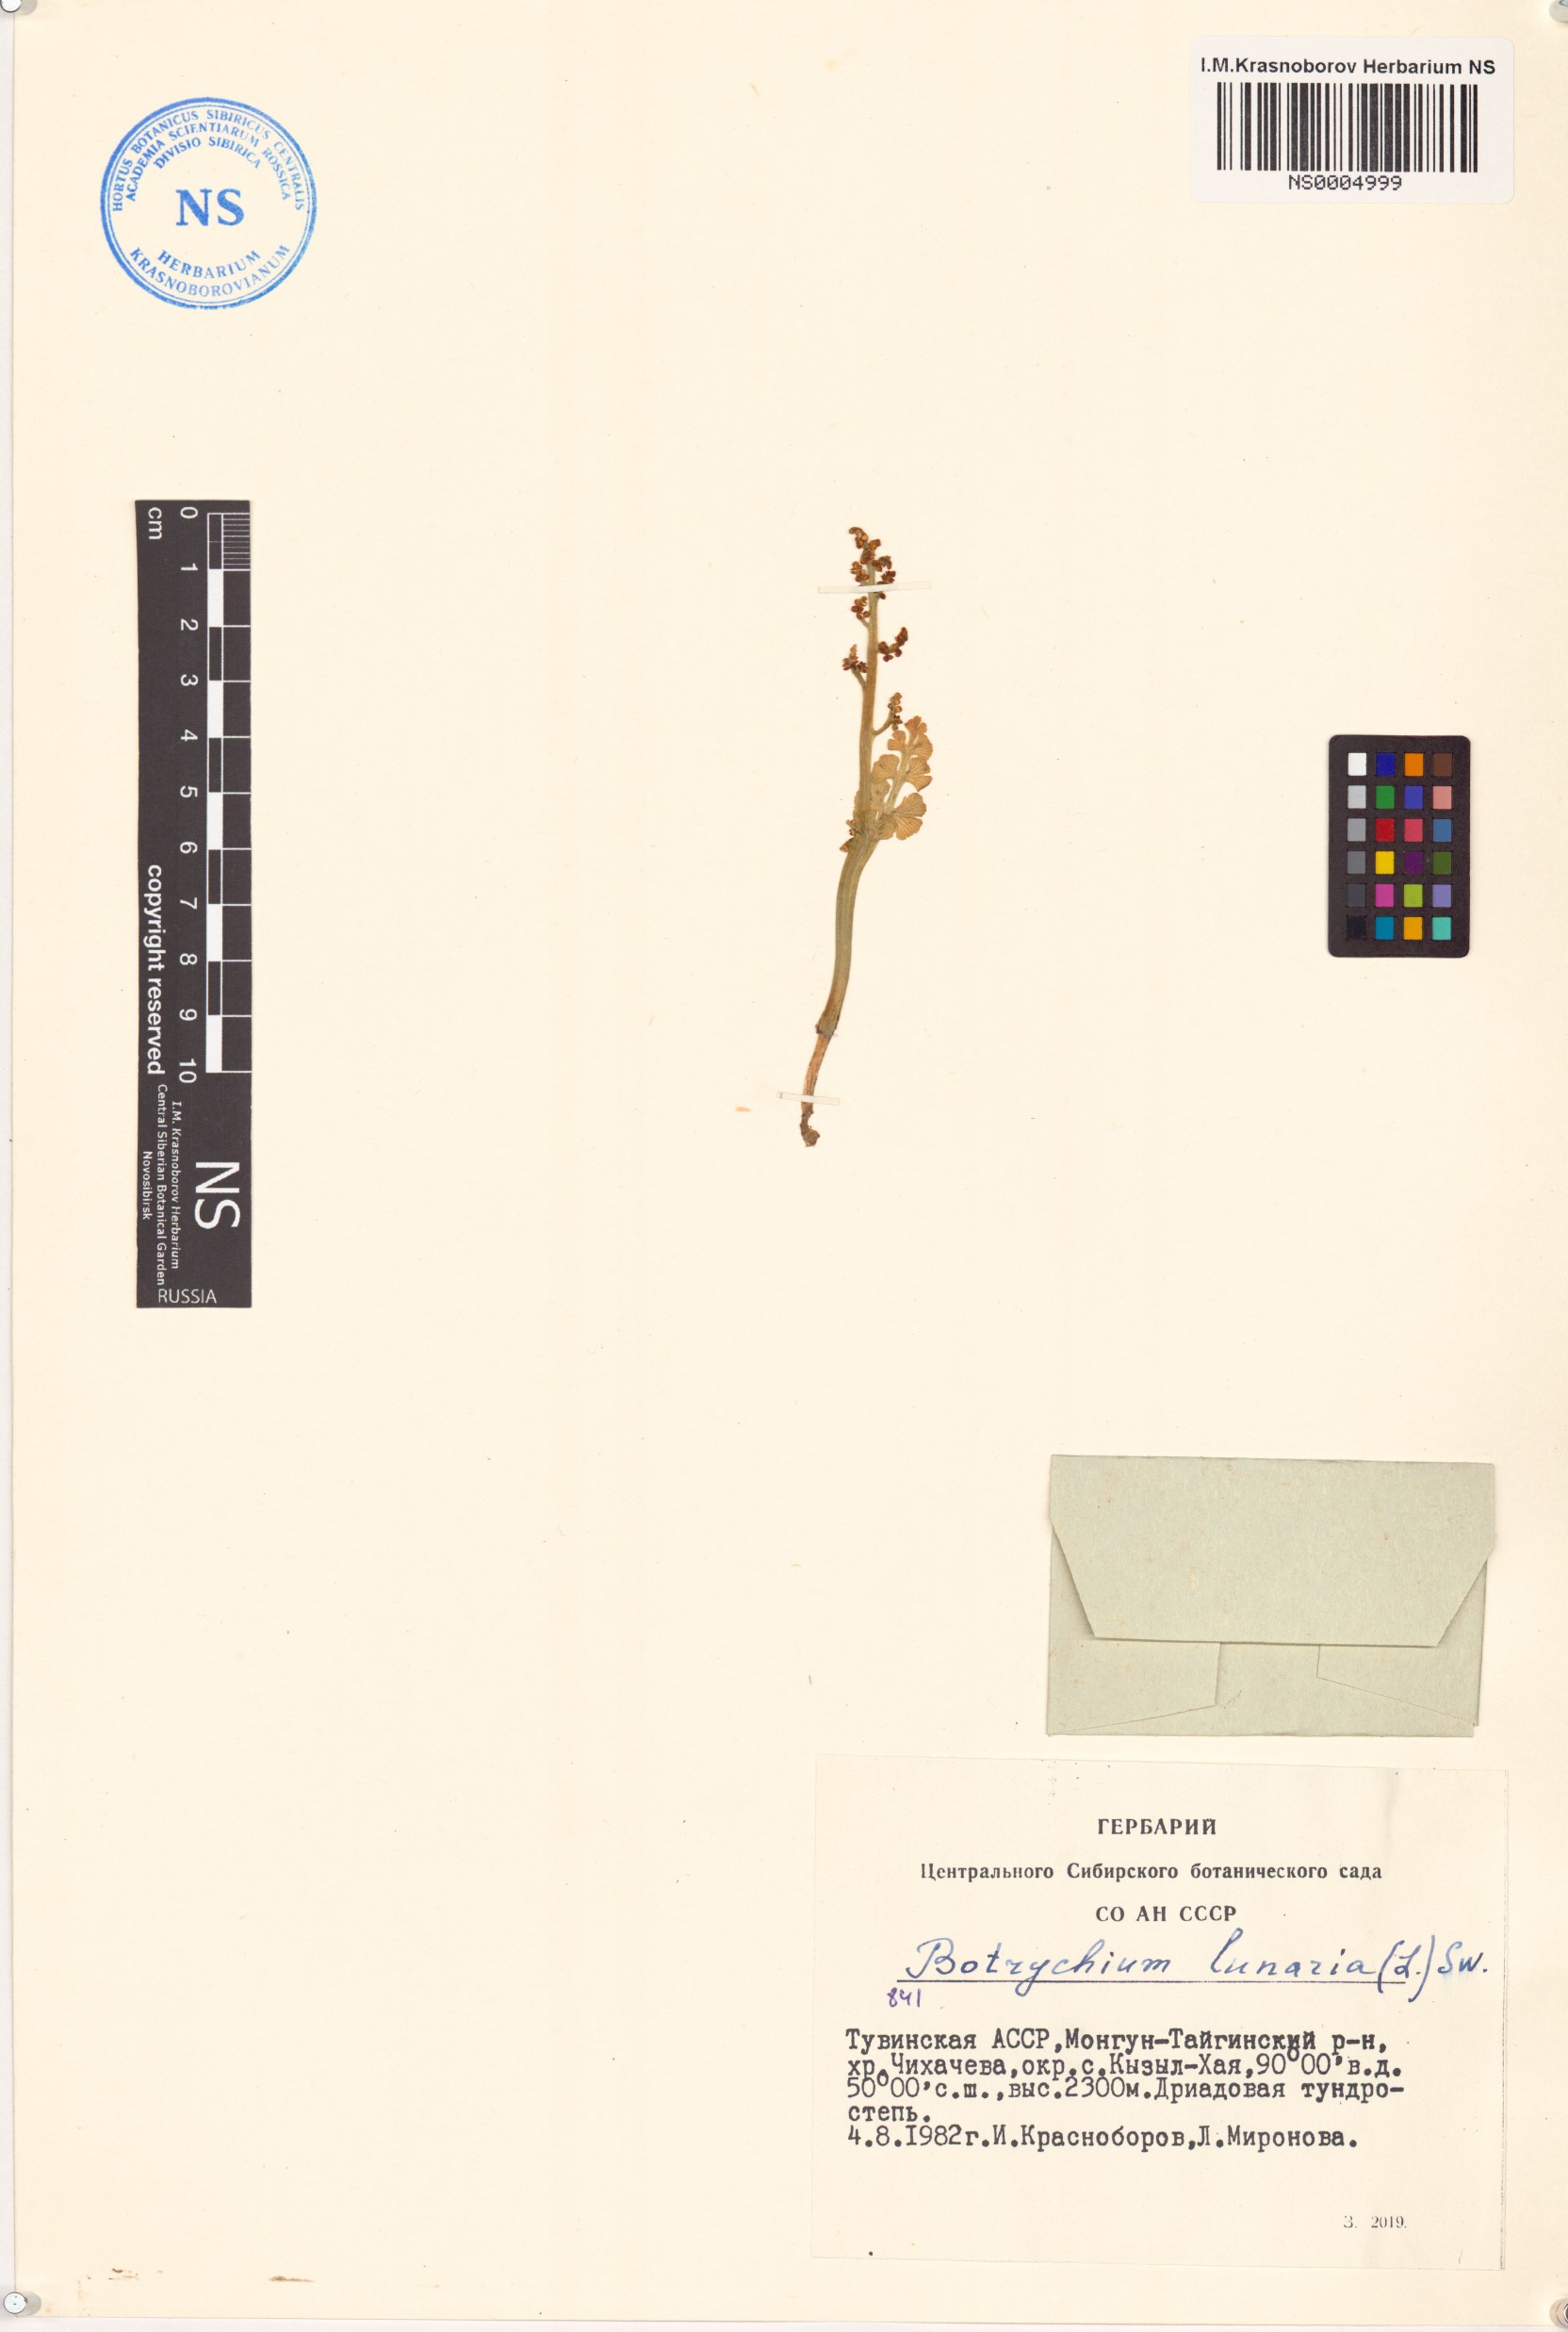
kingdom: Plantae
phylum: Tracheophyta
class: Polypodiopsida
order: Ophioglossales
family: Ophioglossaceae
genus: Botrychium
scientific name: Botrychium lunaria
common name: Moonwort
